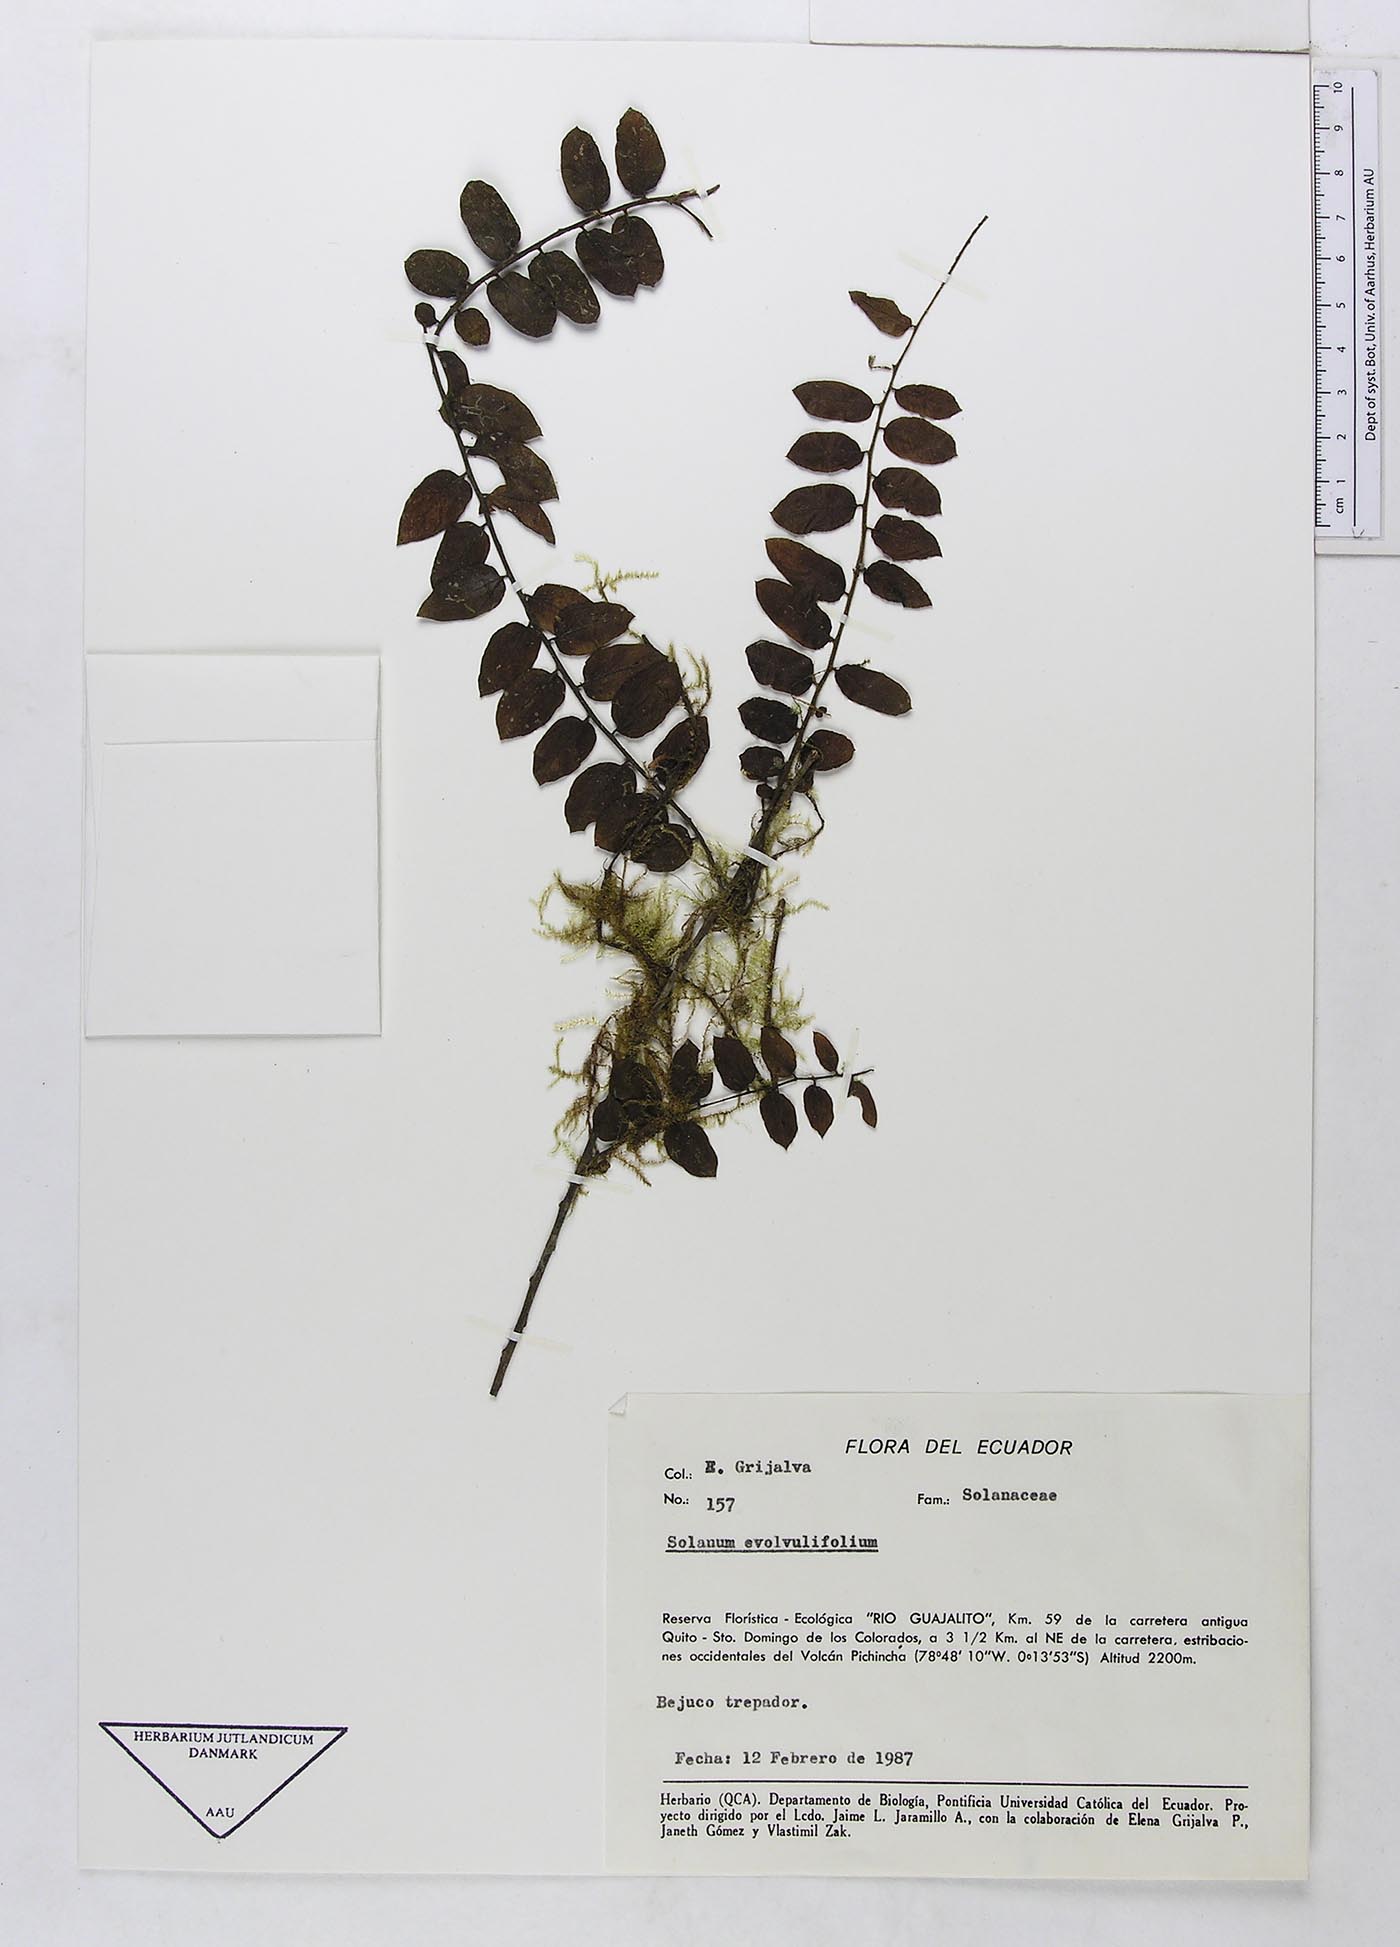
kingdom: Plantae
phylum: Tracheophyta
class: Magnoliopsida
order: Solanales
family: Solanaceae
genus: Solanum
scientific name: Solanum evolvulifolium
